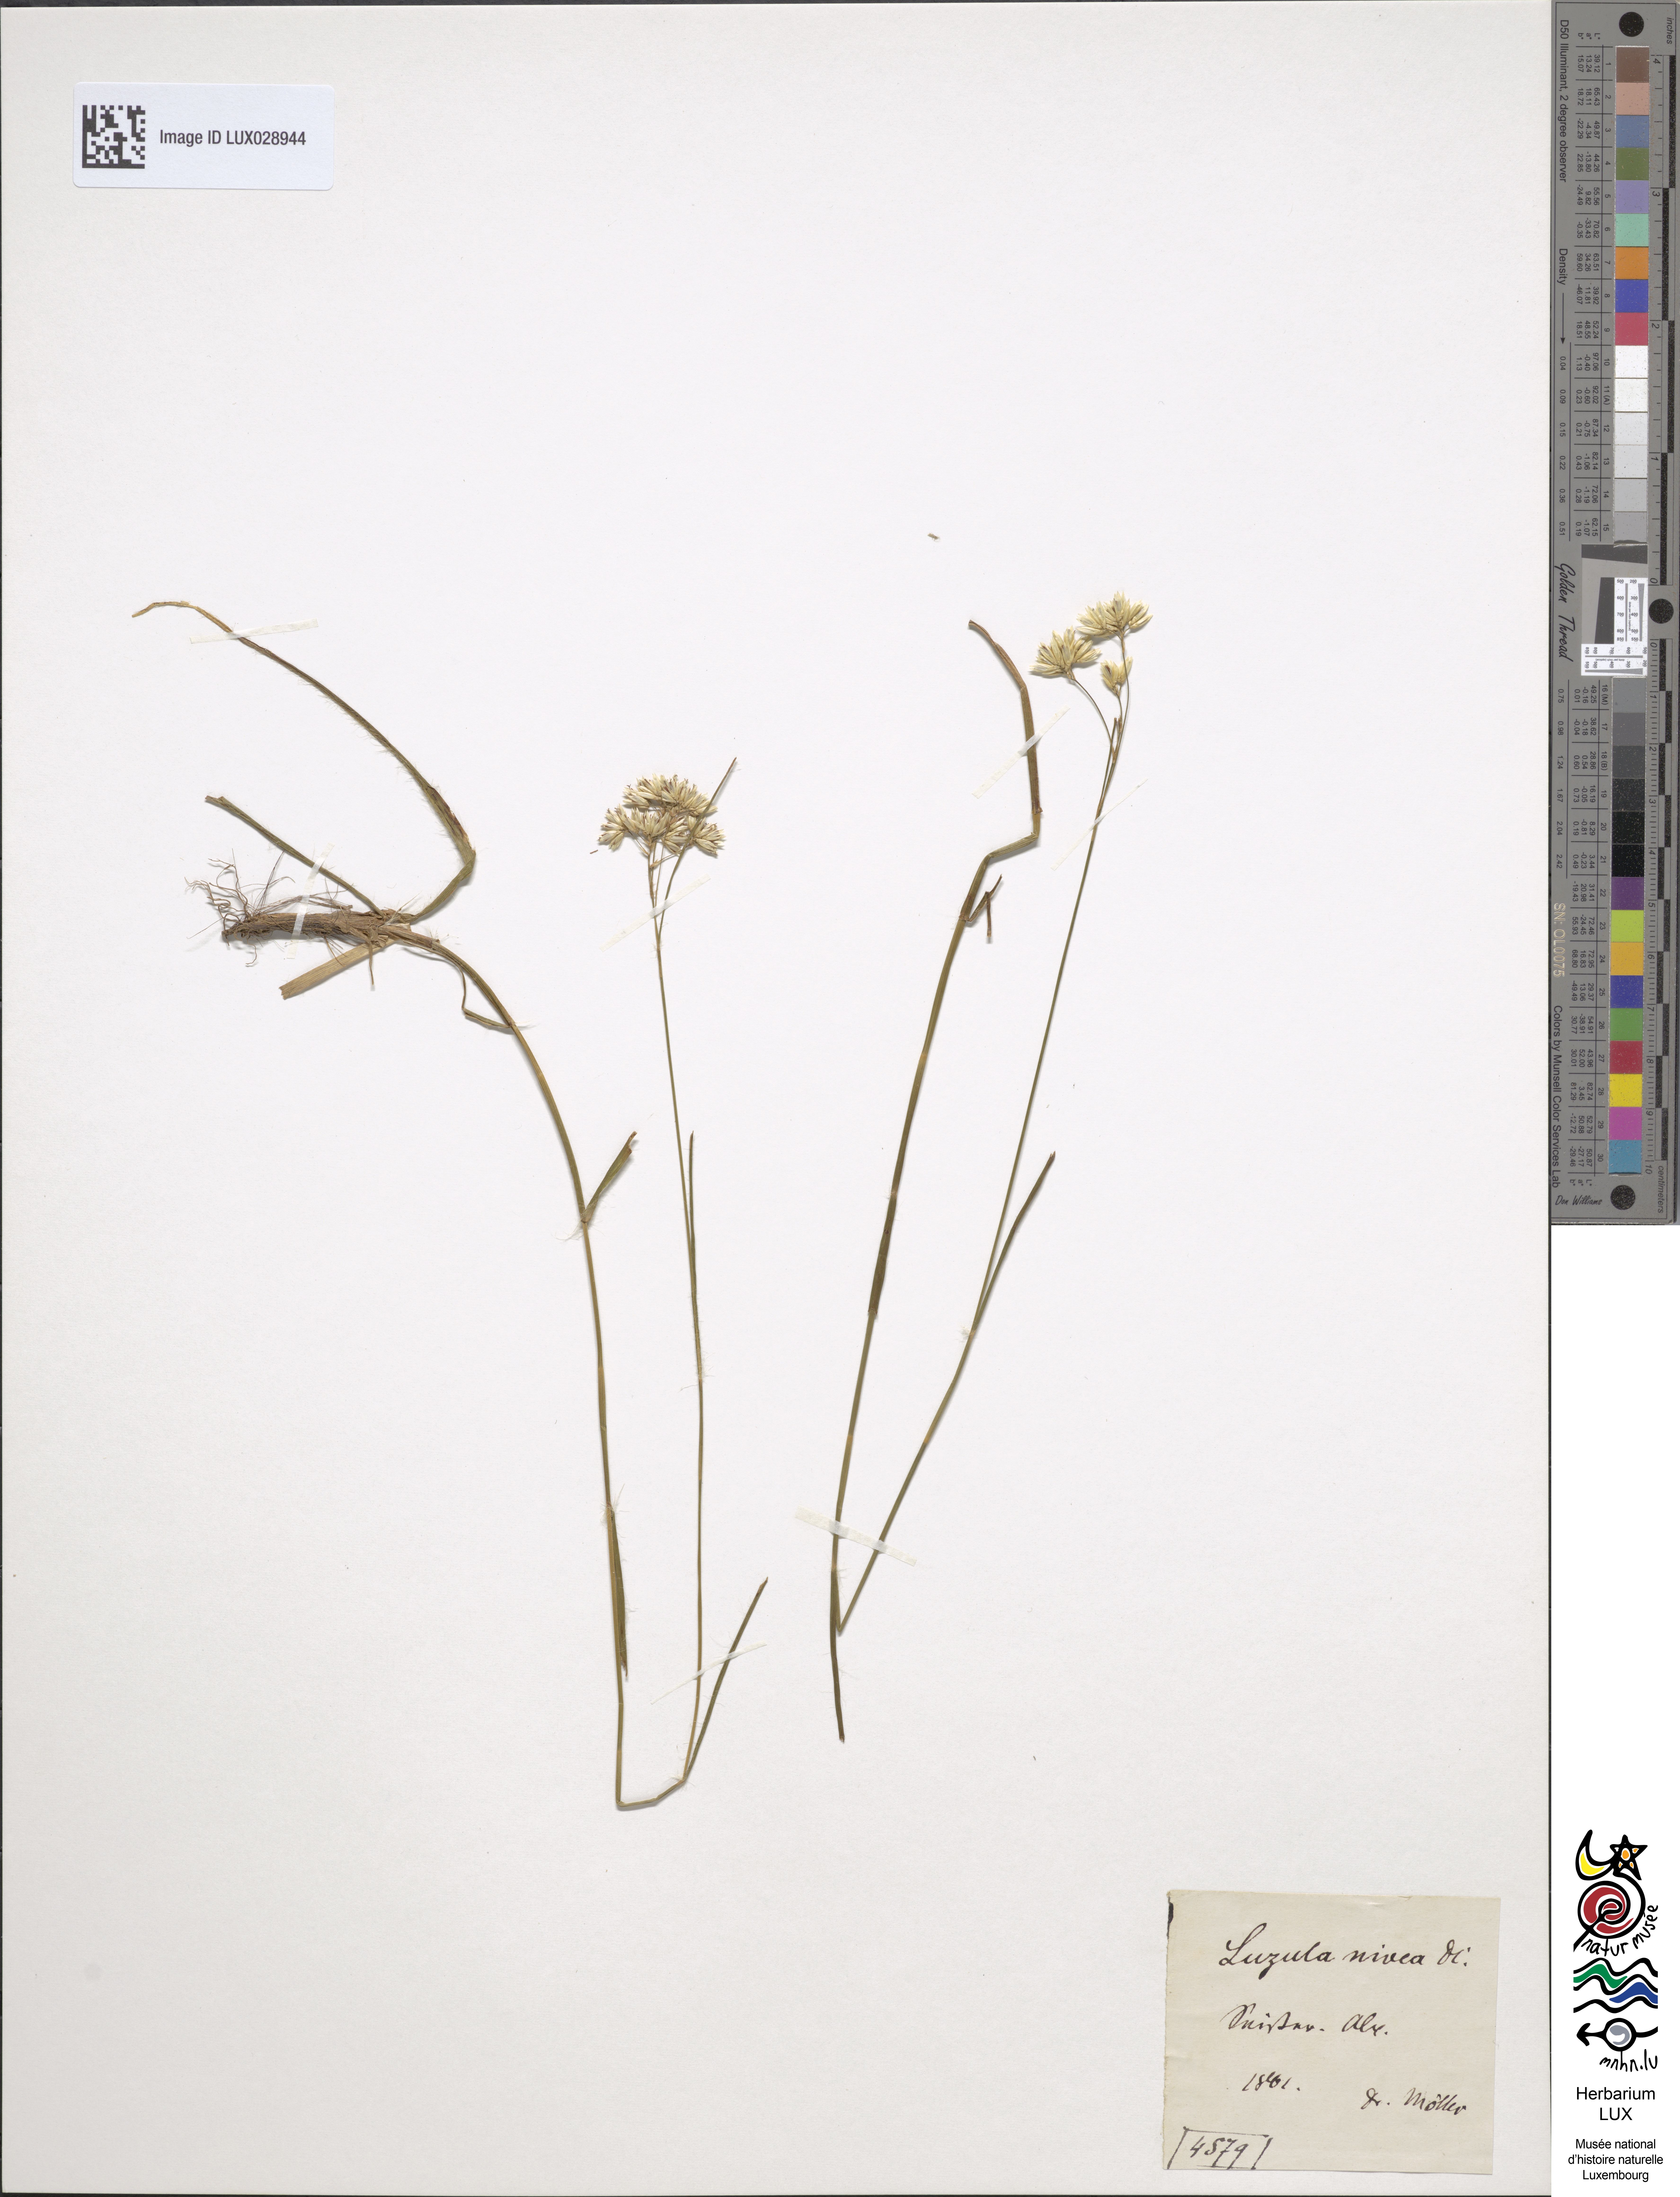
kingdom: Plantae
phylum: Tracheophyta
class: Liliopsida
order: Poales
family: Juncaceae
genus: Luzula
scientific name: Luzula nivea
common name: Snow-white wood-rush
